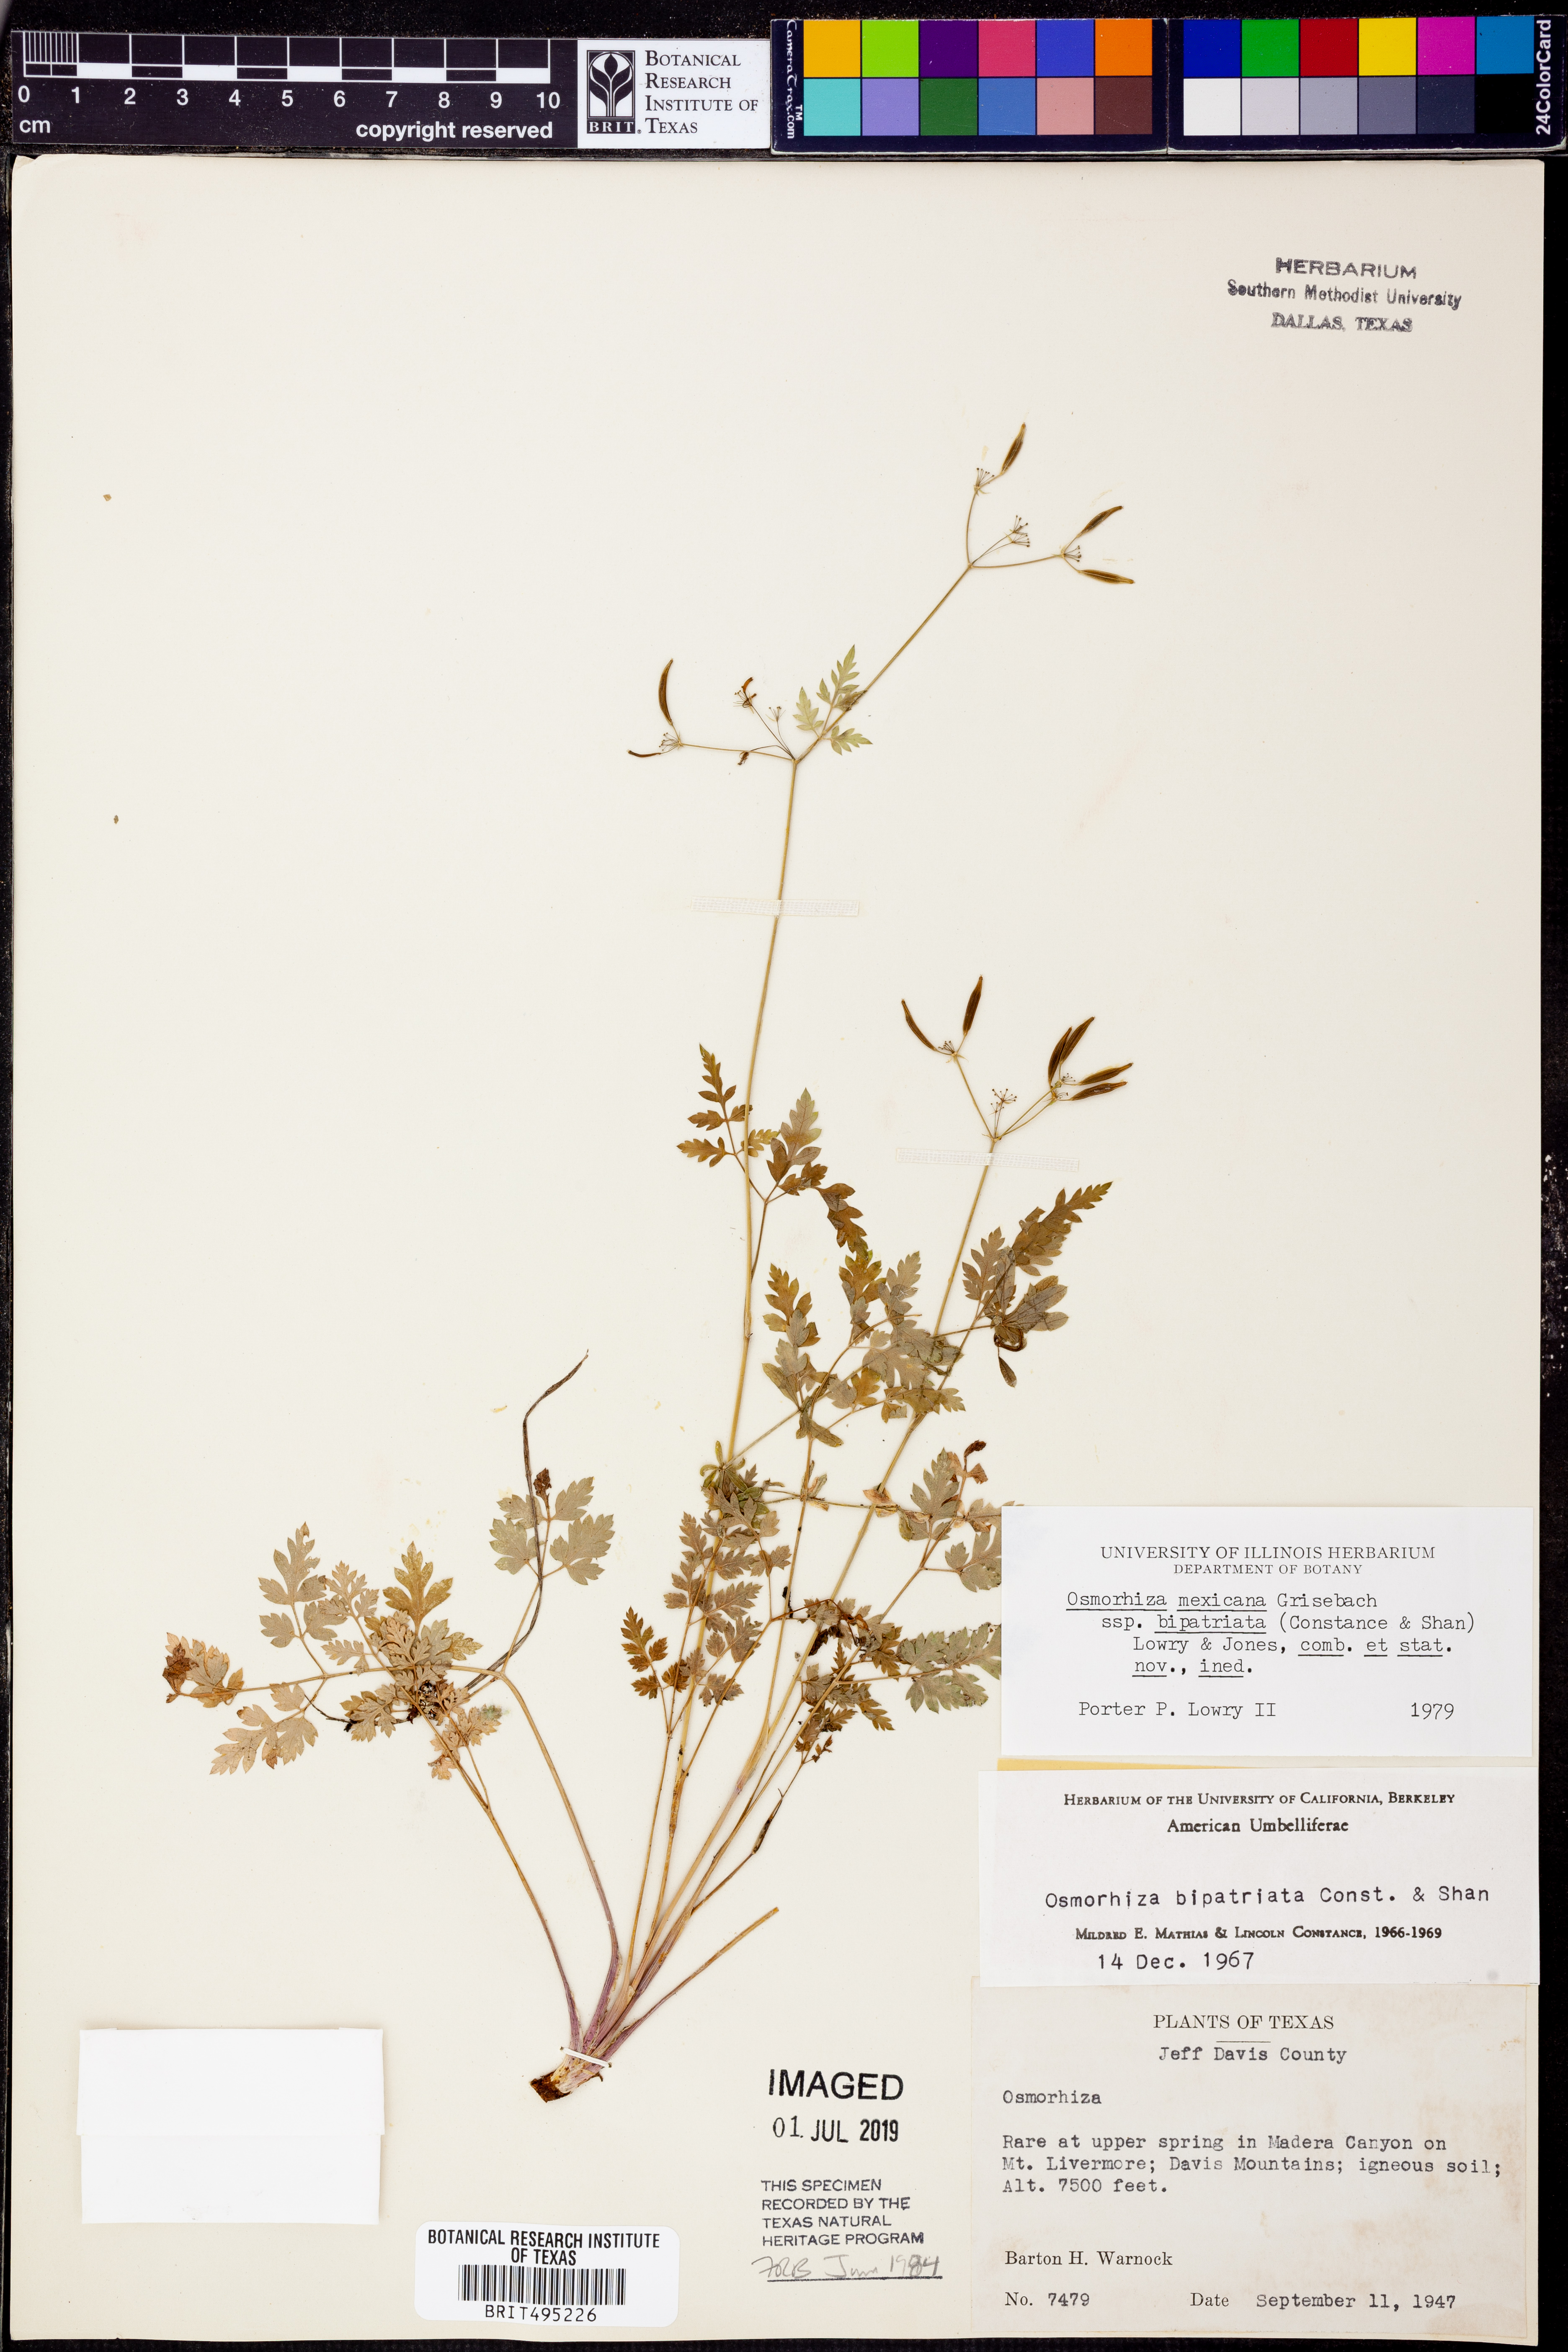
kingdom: Plantae
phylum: Tracheophyta
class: Magnoliopsida
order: Apiales
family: Apiaceae
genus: Osmorhiza
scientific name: Osmorhiza bipatriata
